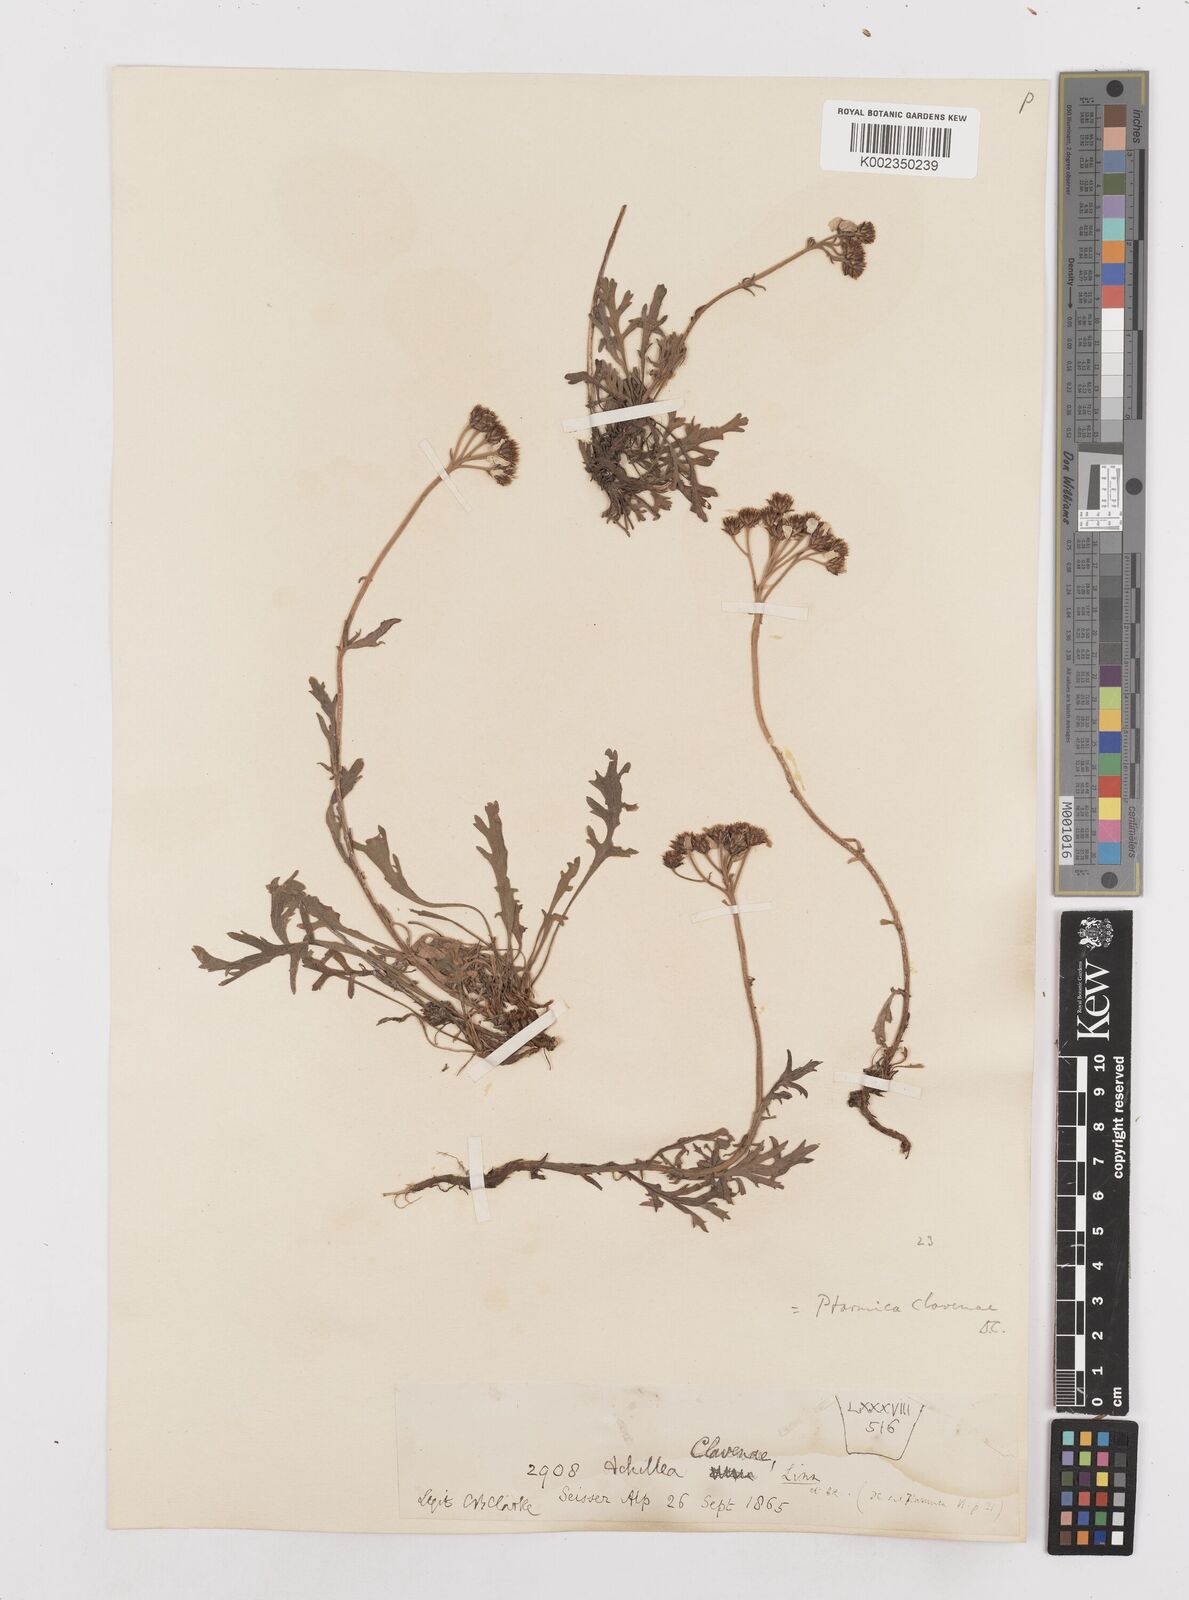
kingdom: Plantae
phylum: Tracheophyta
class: Magnoliopsida
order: Asterales
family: Asteraceae
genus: Achillea
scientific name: Achillea clavennae
